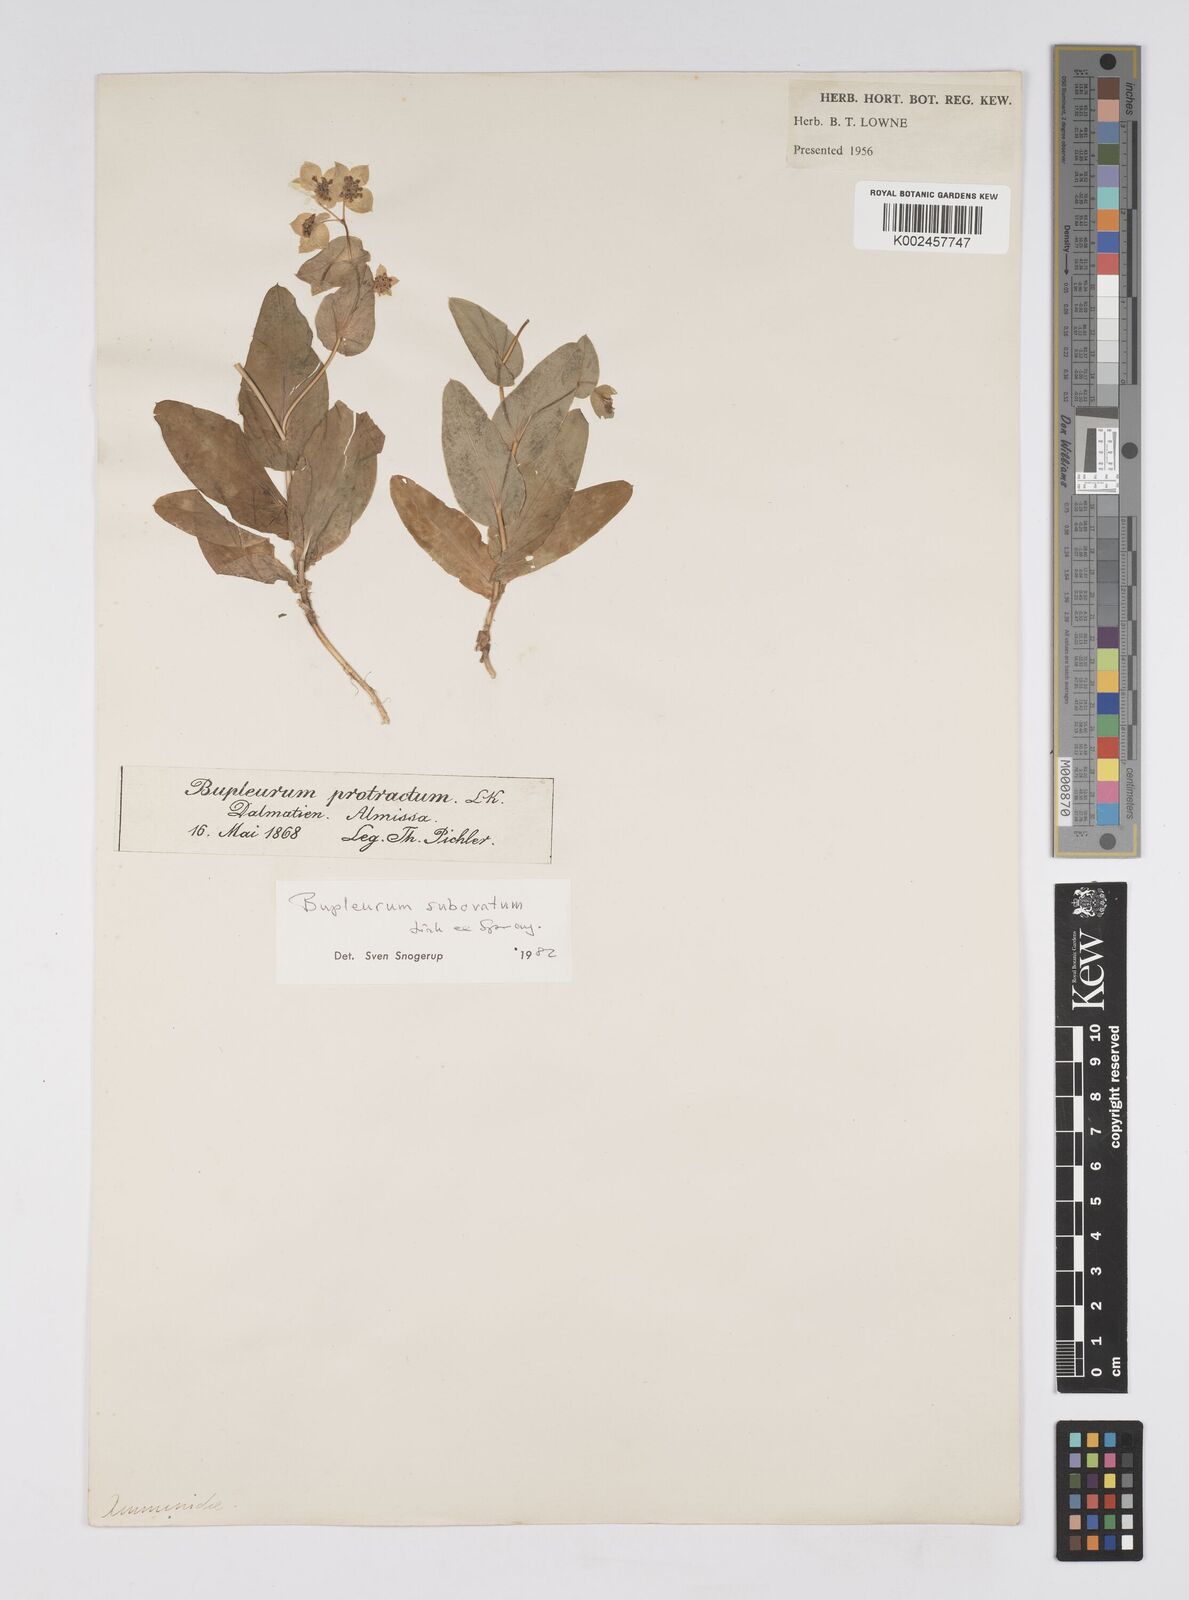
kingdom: Plantae
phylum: Tracheophyta
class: Magnoliopsida
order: Apiales
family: Apiaceae
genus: Bupleurum
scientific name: Bupleurum subovatum
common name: False thorow-wax
